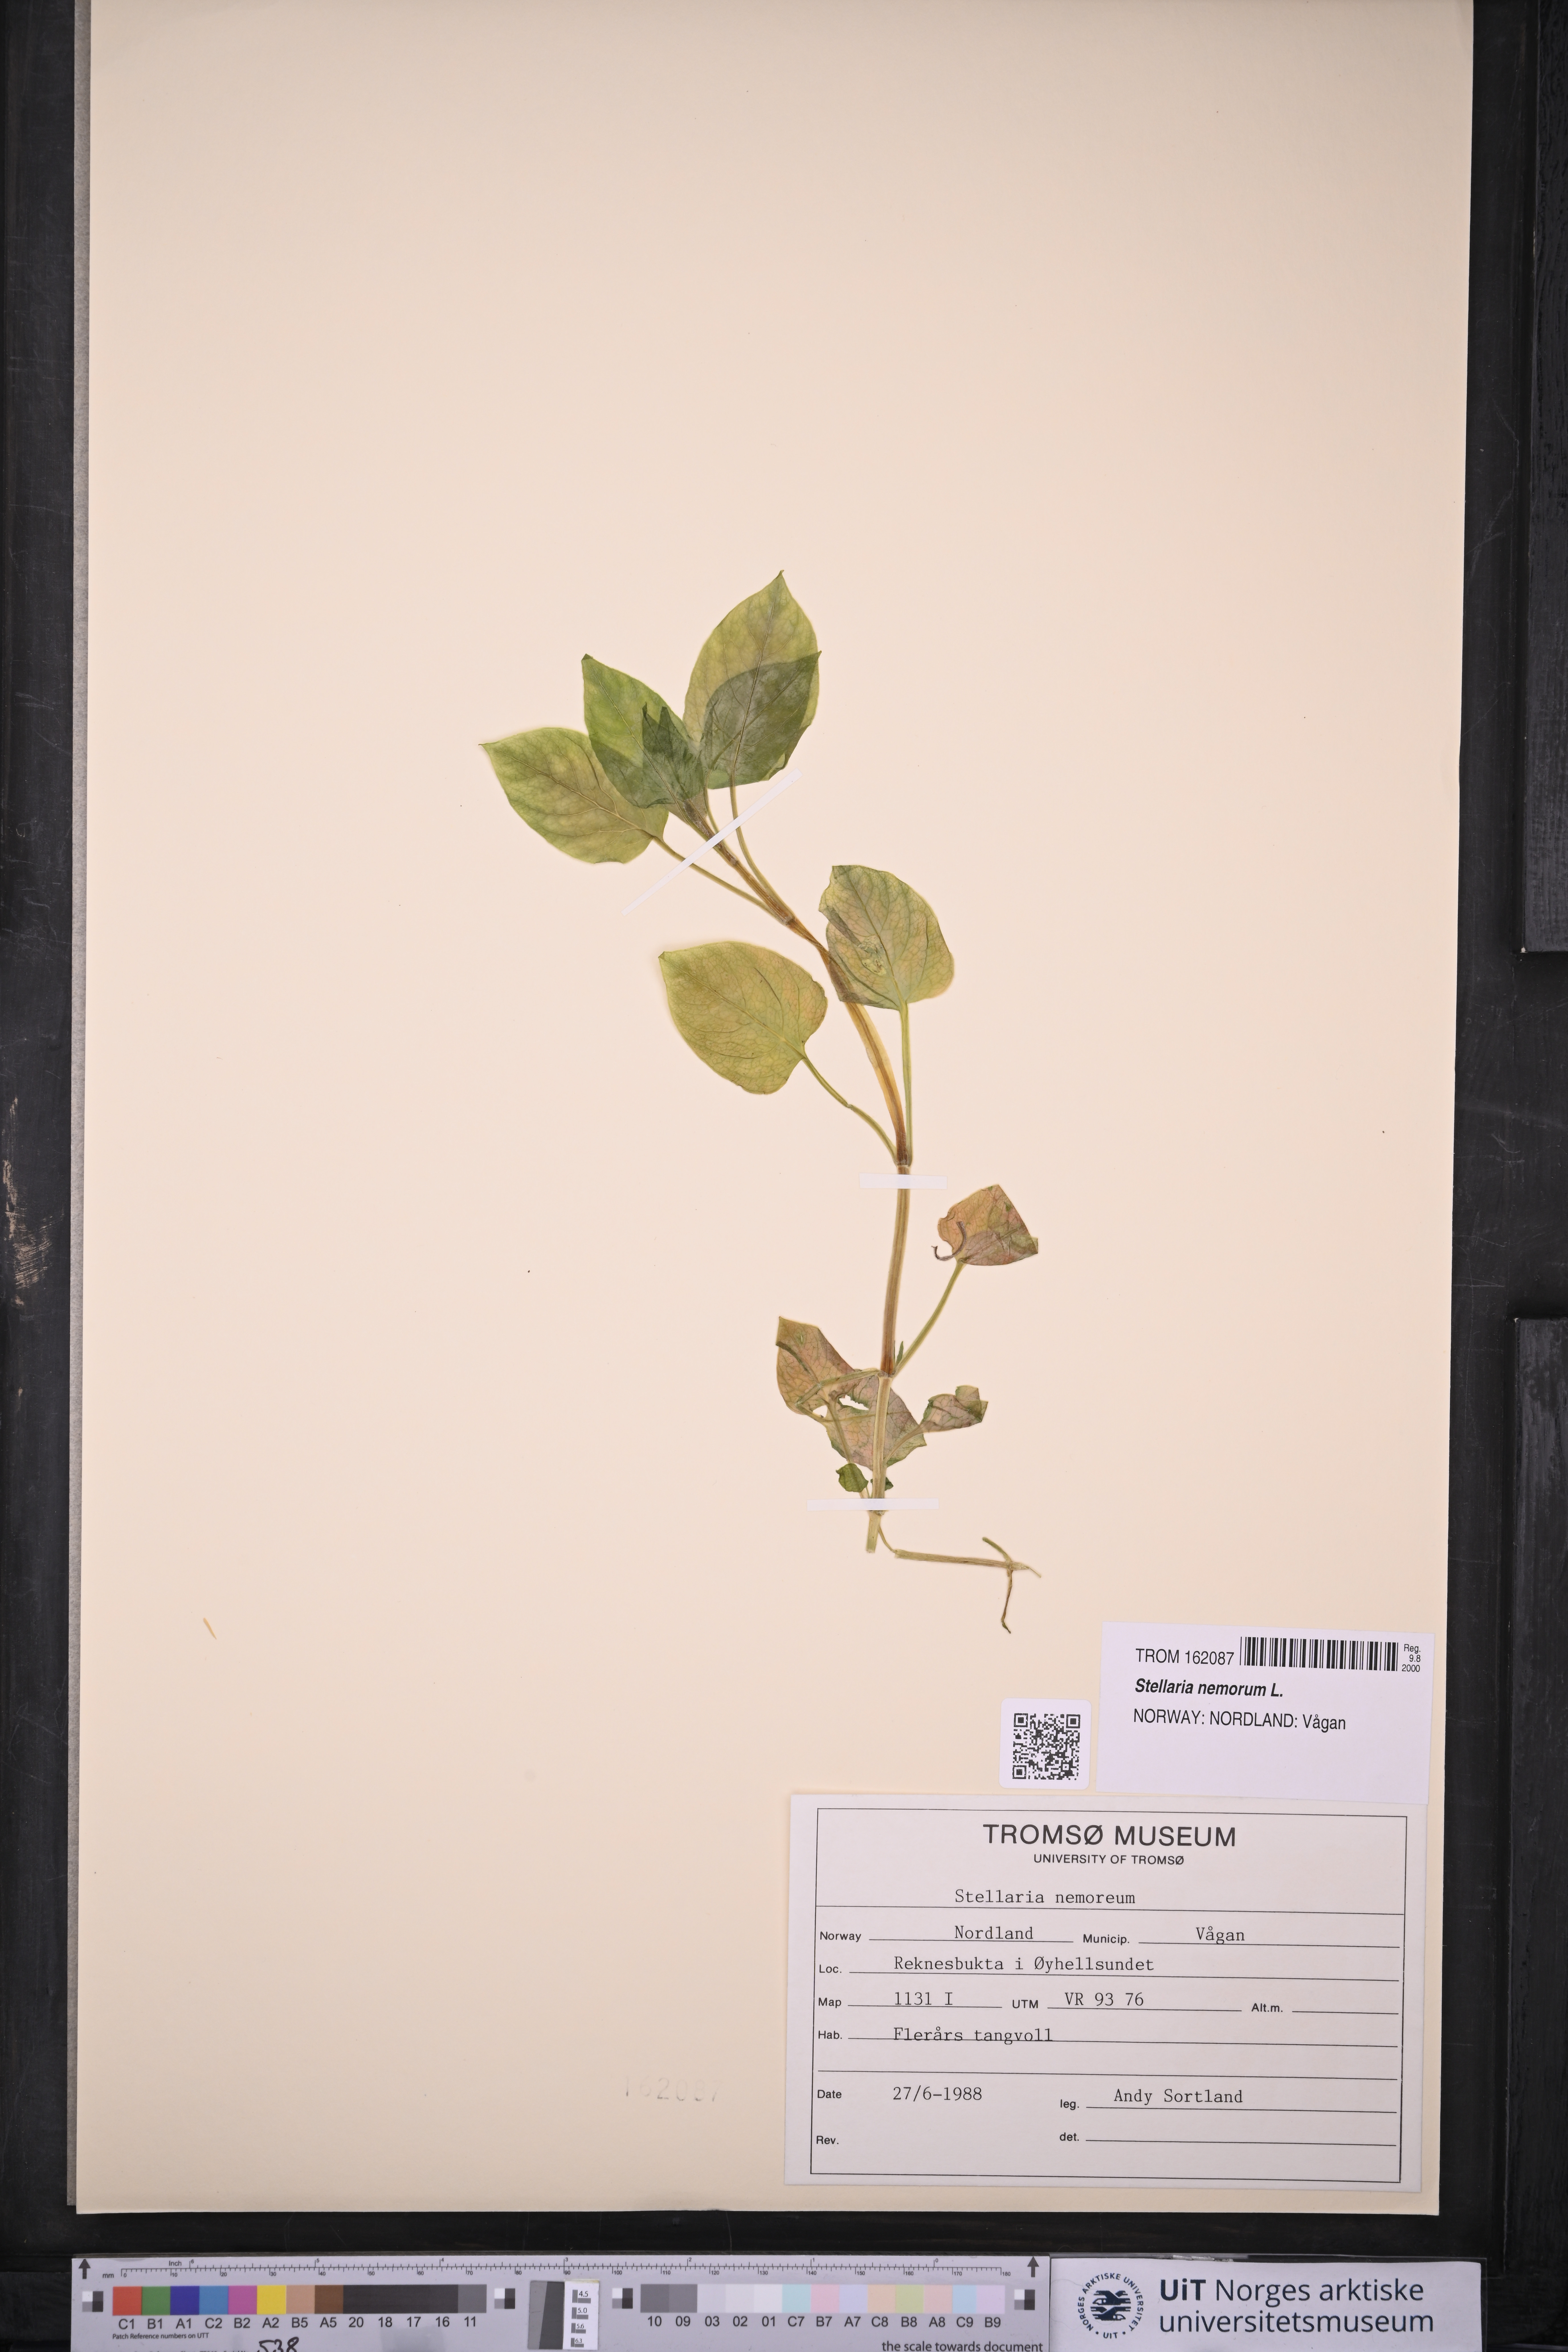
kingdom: Plantae
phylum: Tracheophyta
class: Magnoliopsida
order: Caryophyllales
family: Caryophyllaceae
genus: Stellaria
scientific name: Stellaria nemorum
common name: Wood stitchwort
